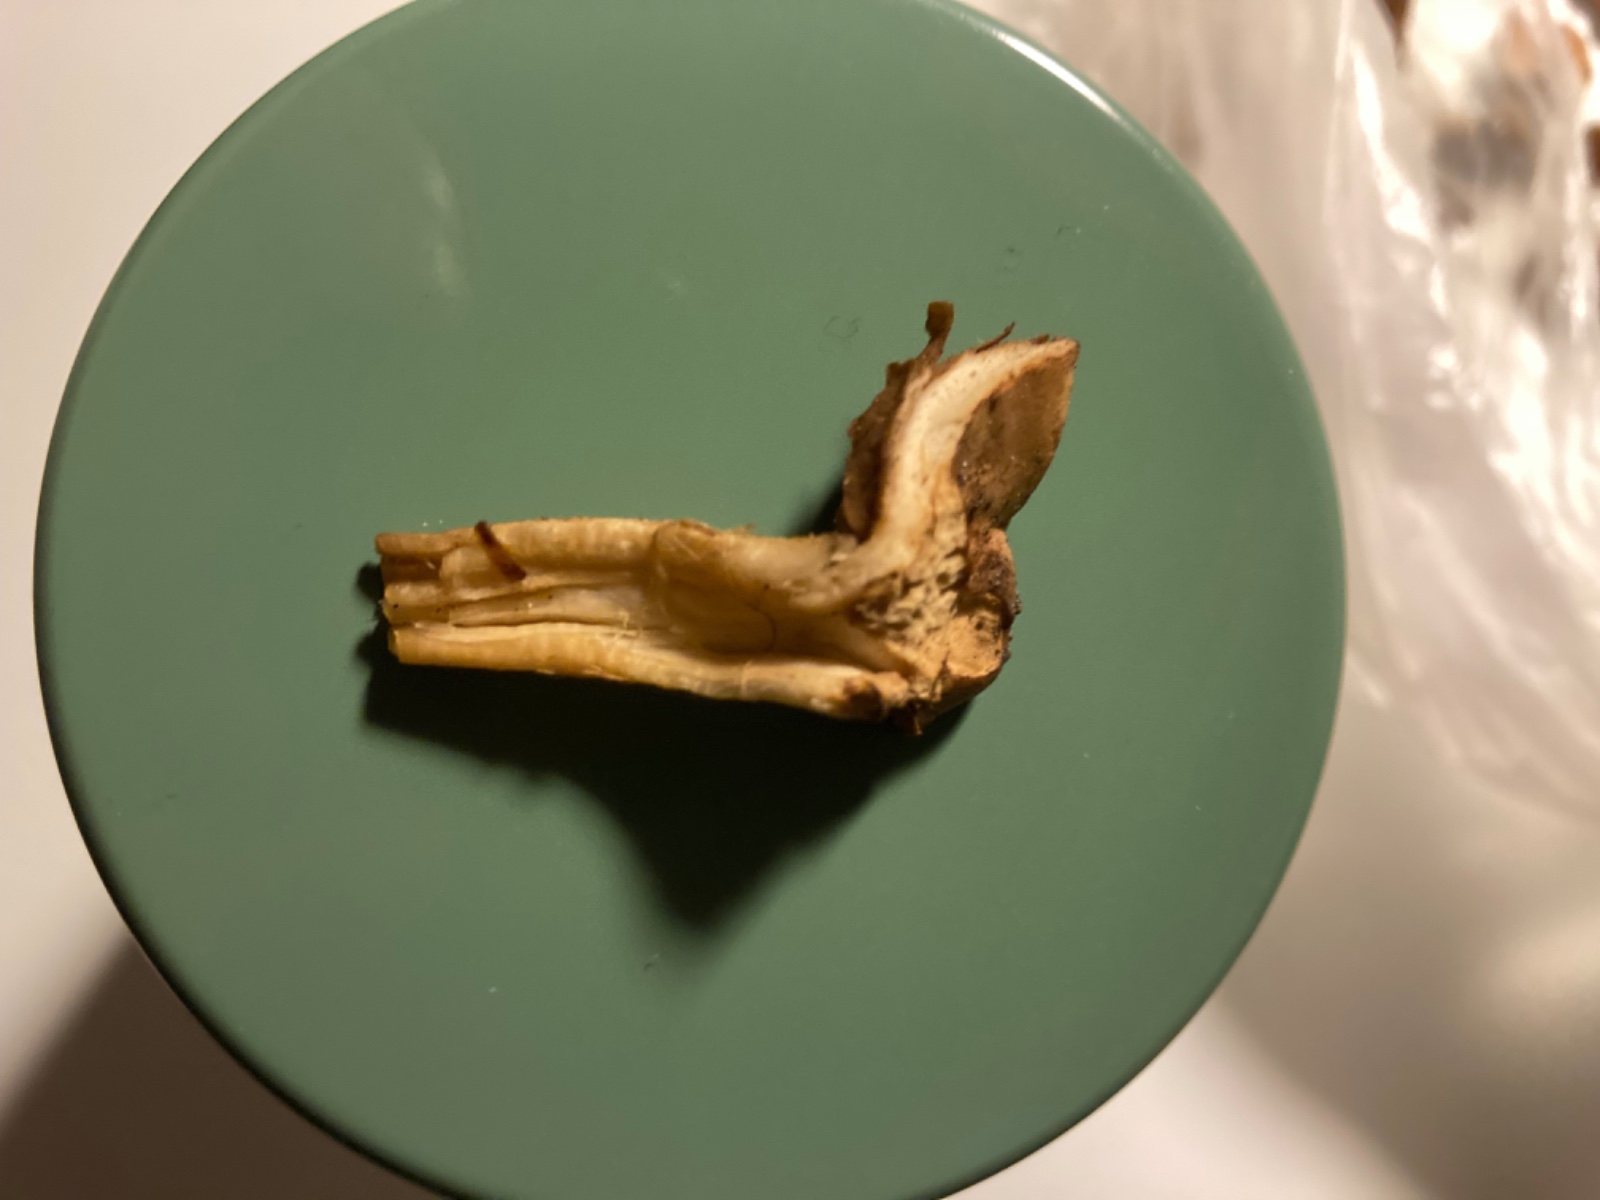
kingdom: Fungi
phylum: Basidiomycota
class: Agaricomycetes
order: Agaricales
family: Hymenogastraceae
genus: Hebeloma
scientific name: Hebeloma sinapizans
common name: ræddike-tåreblad
